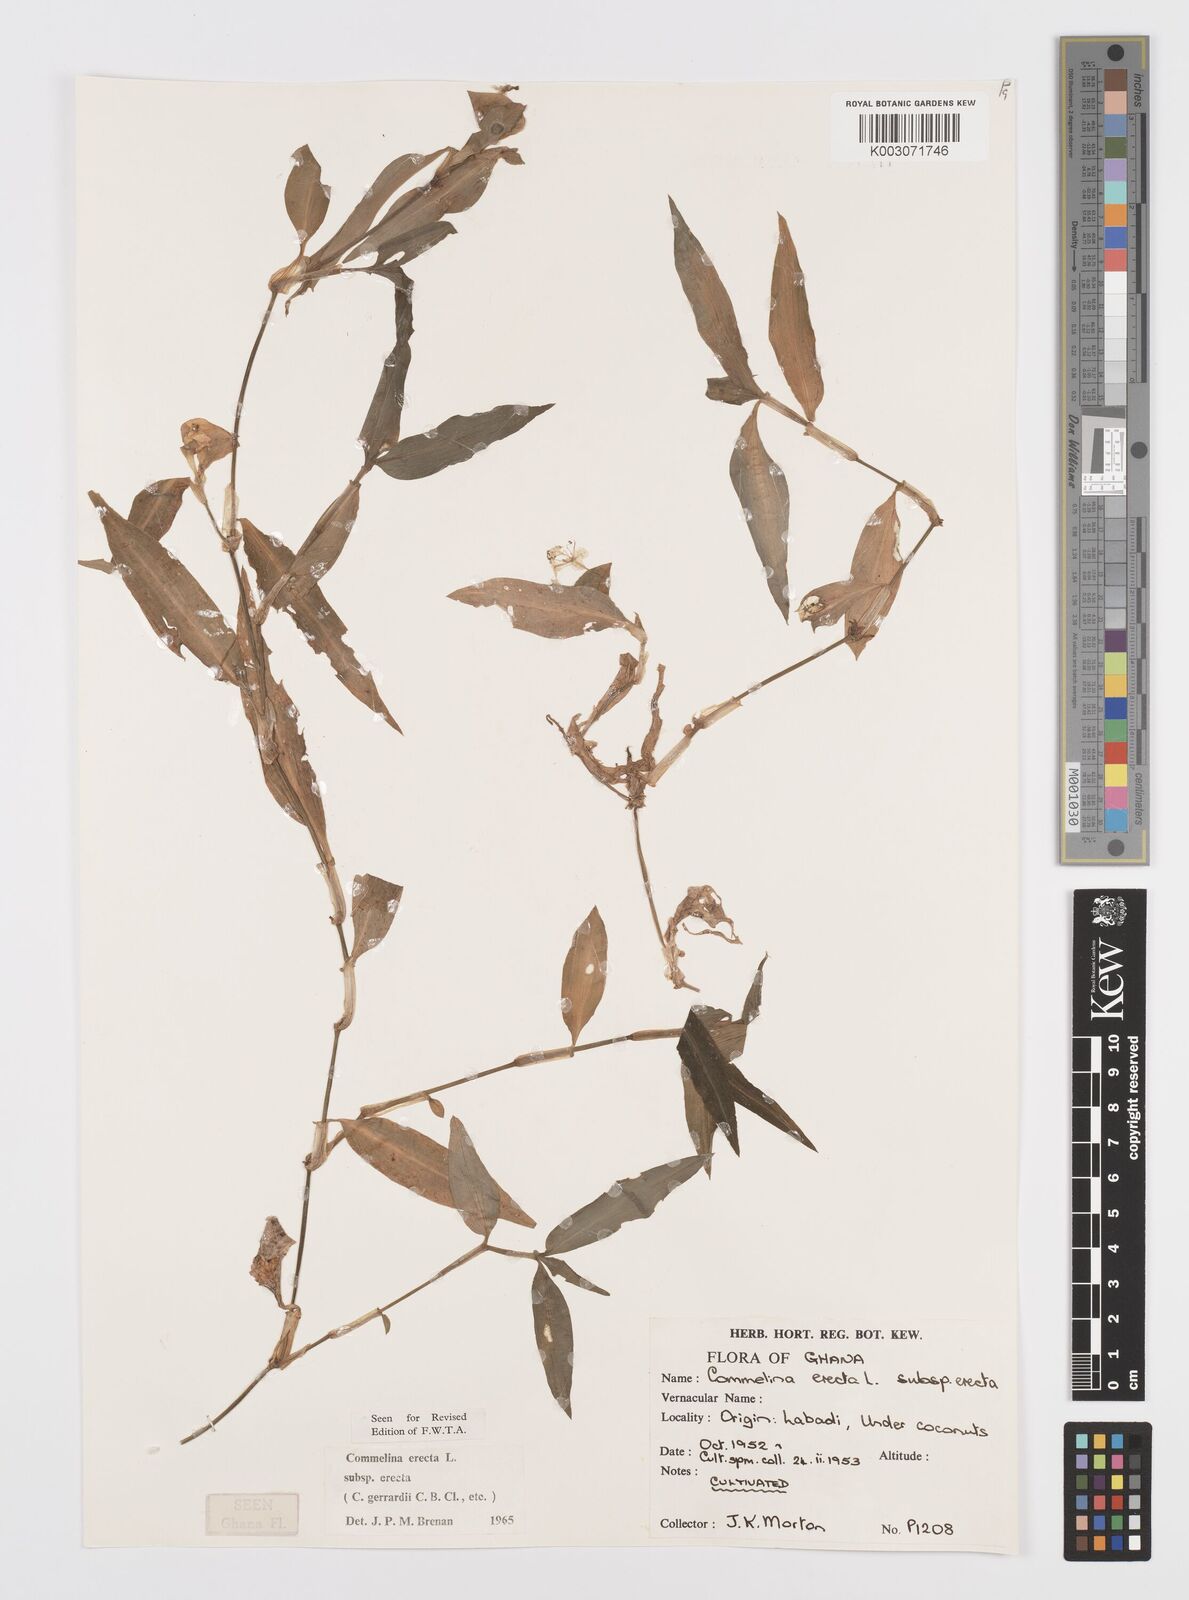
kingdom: Plantae
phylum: Tracheophyta
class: Liliopsida
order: Commelinales
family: Commelinaceae
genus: Commelina
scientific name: Commelina erecta
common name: Blousel blommetjie
